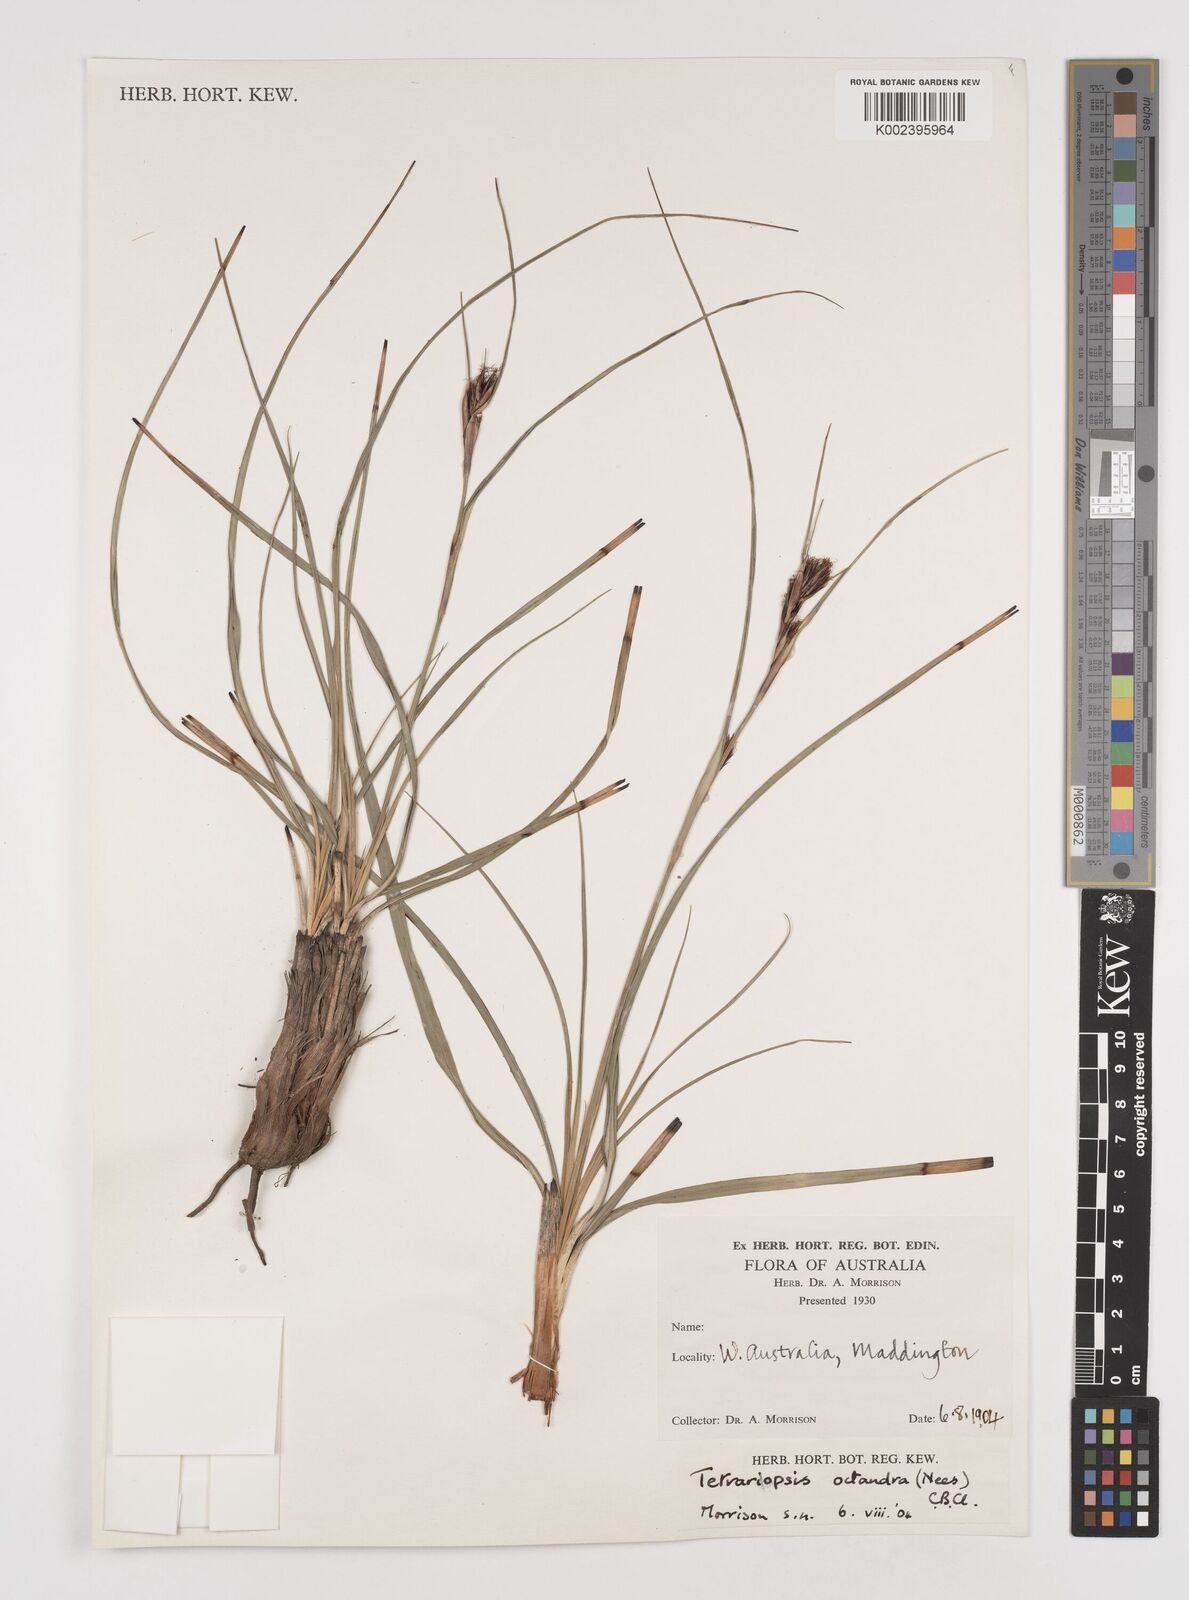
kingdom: Plantae
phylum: Tracheophyta
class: Liliopsida
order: Poales
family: Cyperaceae
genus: Tetraria
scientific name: Tetraria octandra
